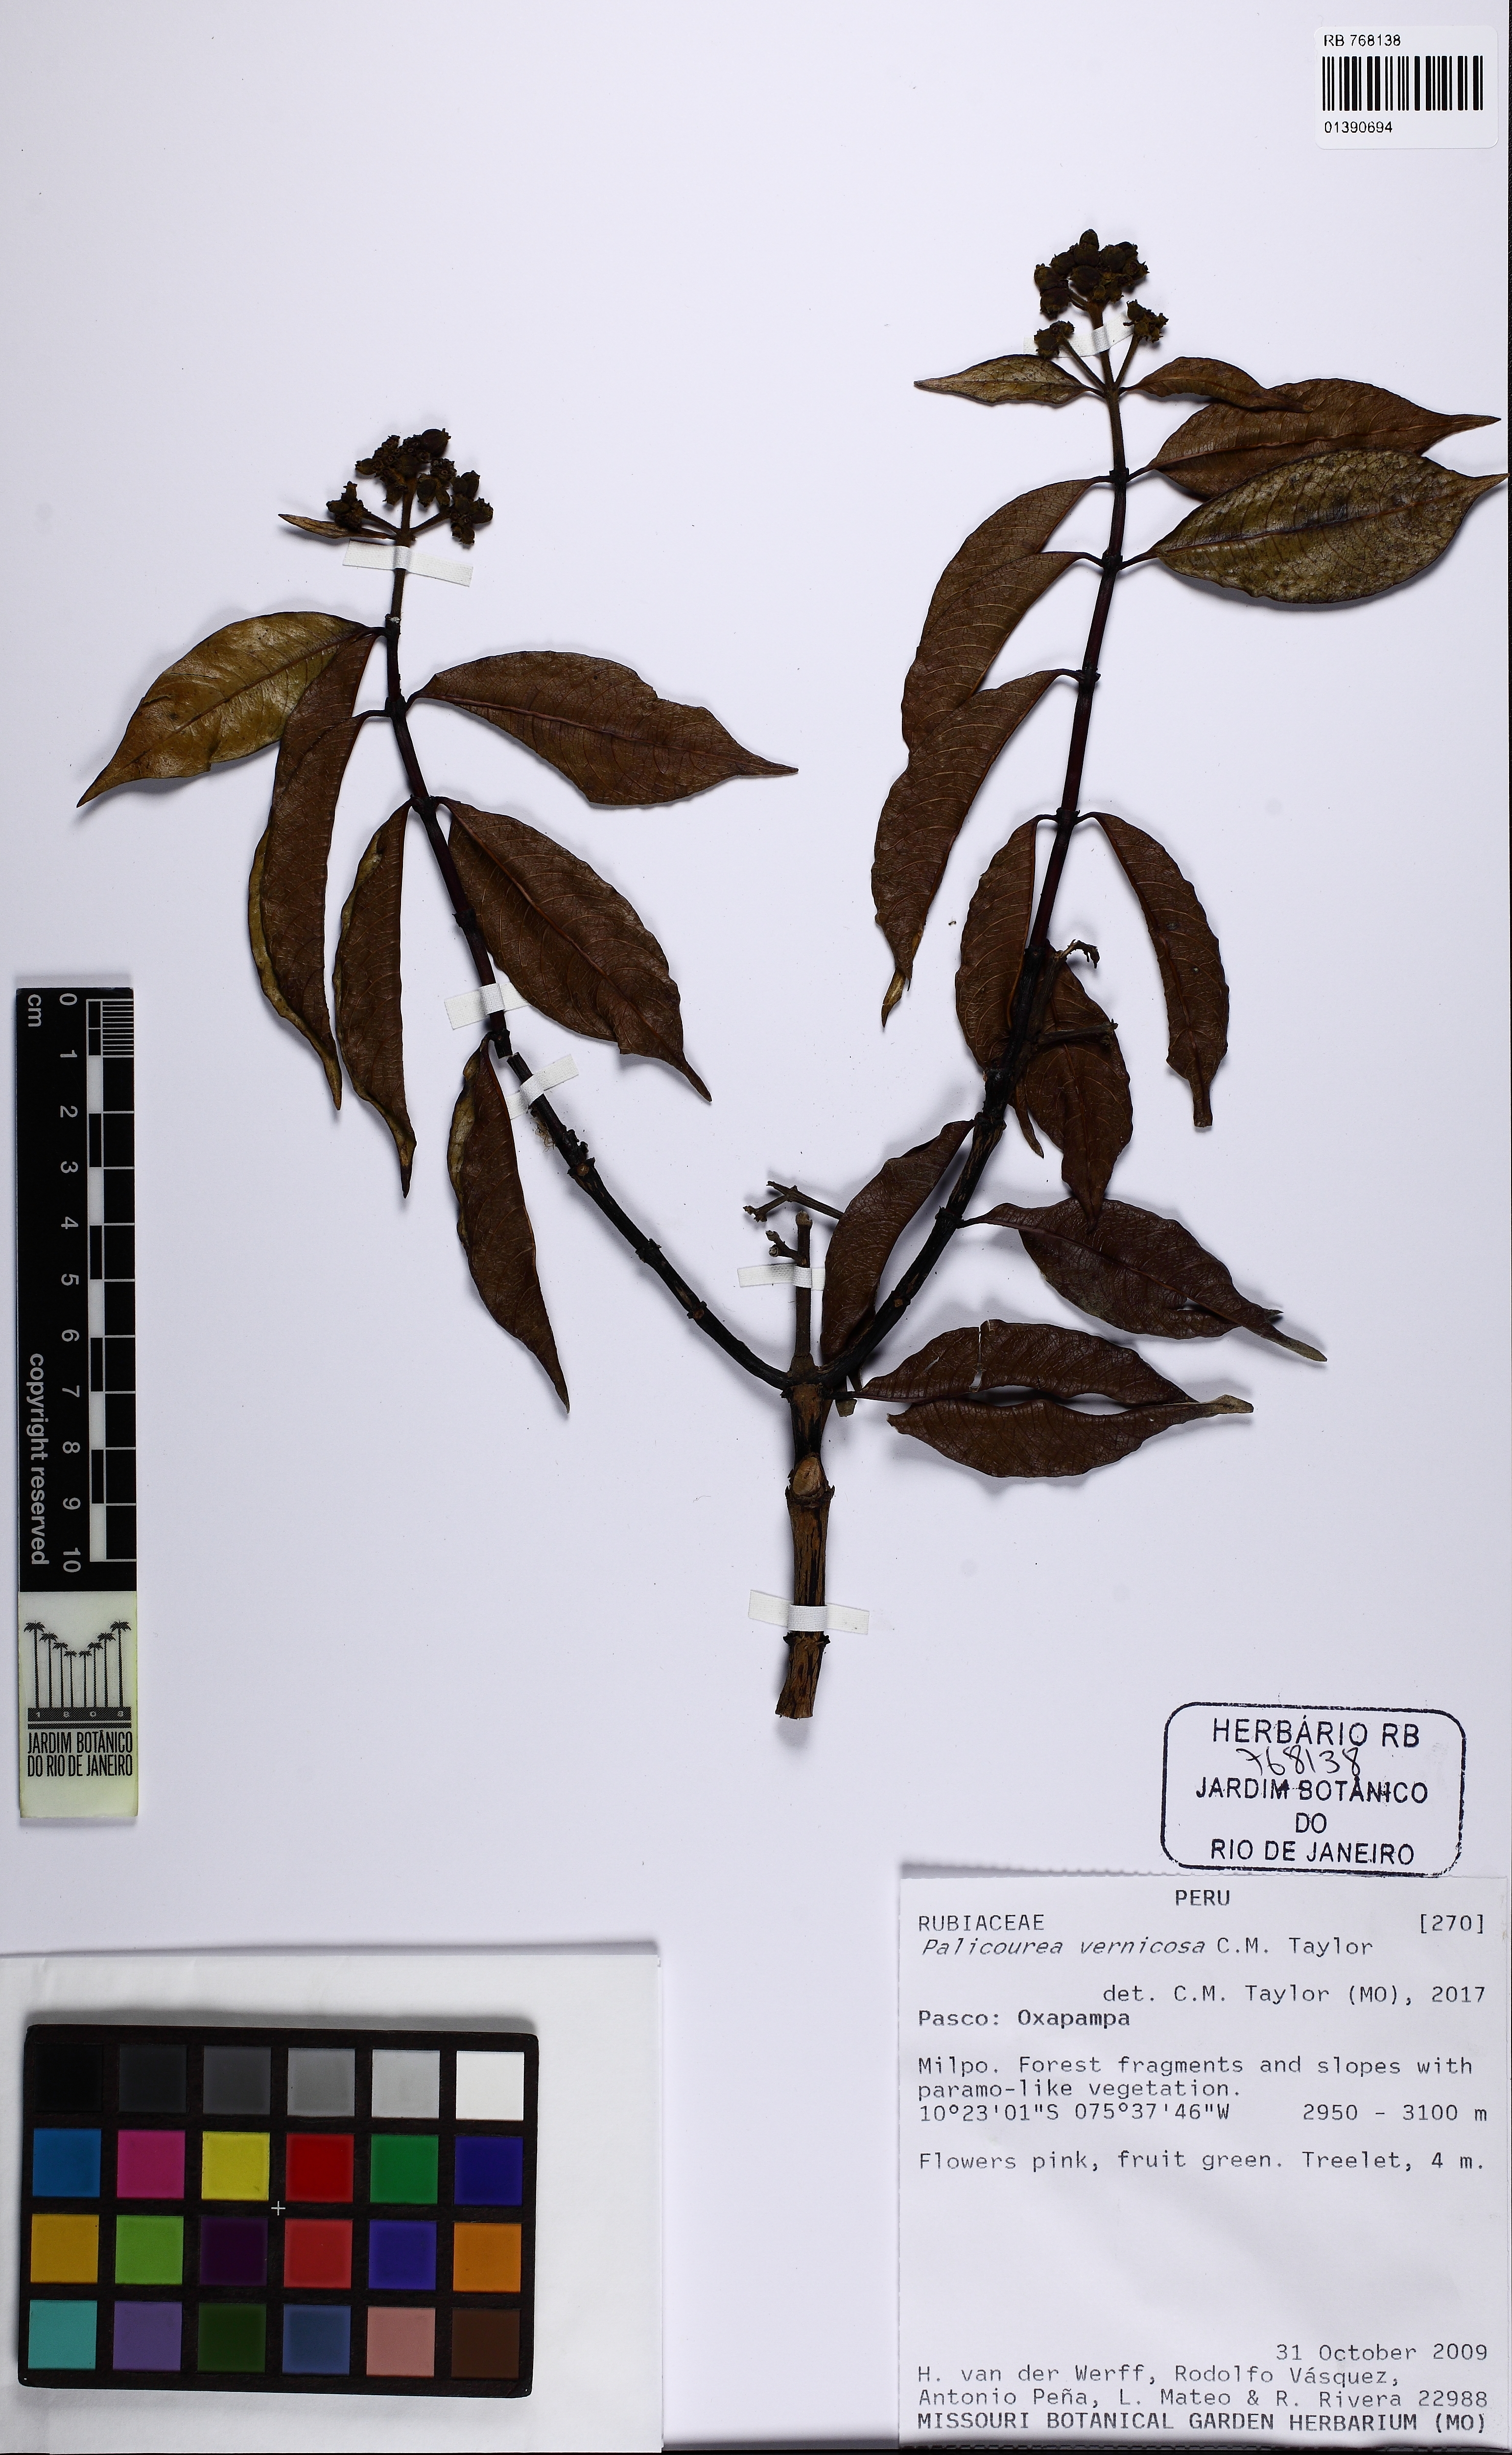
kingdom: Plantae
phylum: Tracheophyta
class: Magnoliopsida
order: Gentianales
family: Rubiaceae
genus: Palicourea
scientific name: Palicourea vernicosa
